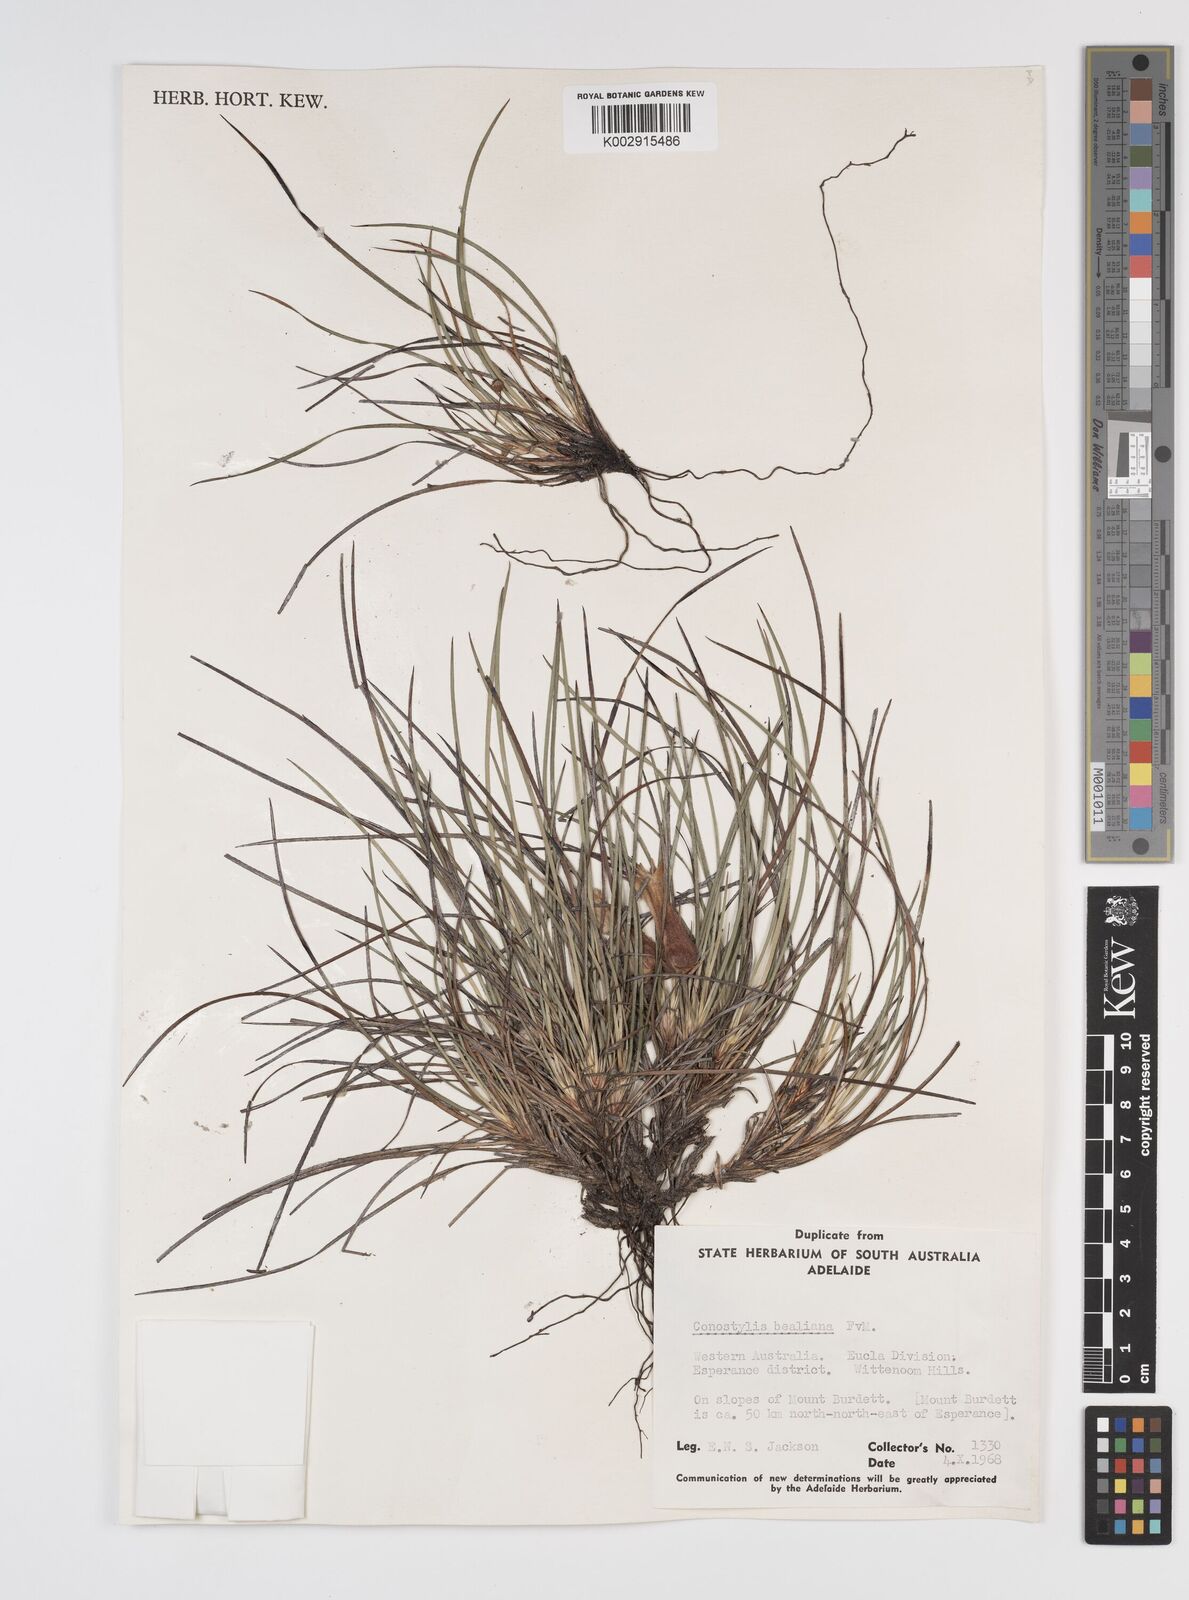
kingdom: Plantae
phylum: Tracheophyta
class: Liliopsida
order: Commelinales
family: Haemodoraceae
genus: Conostylis
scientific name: Conostylis bealiana
